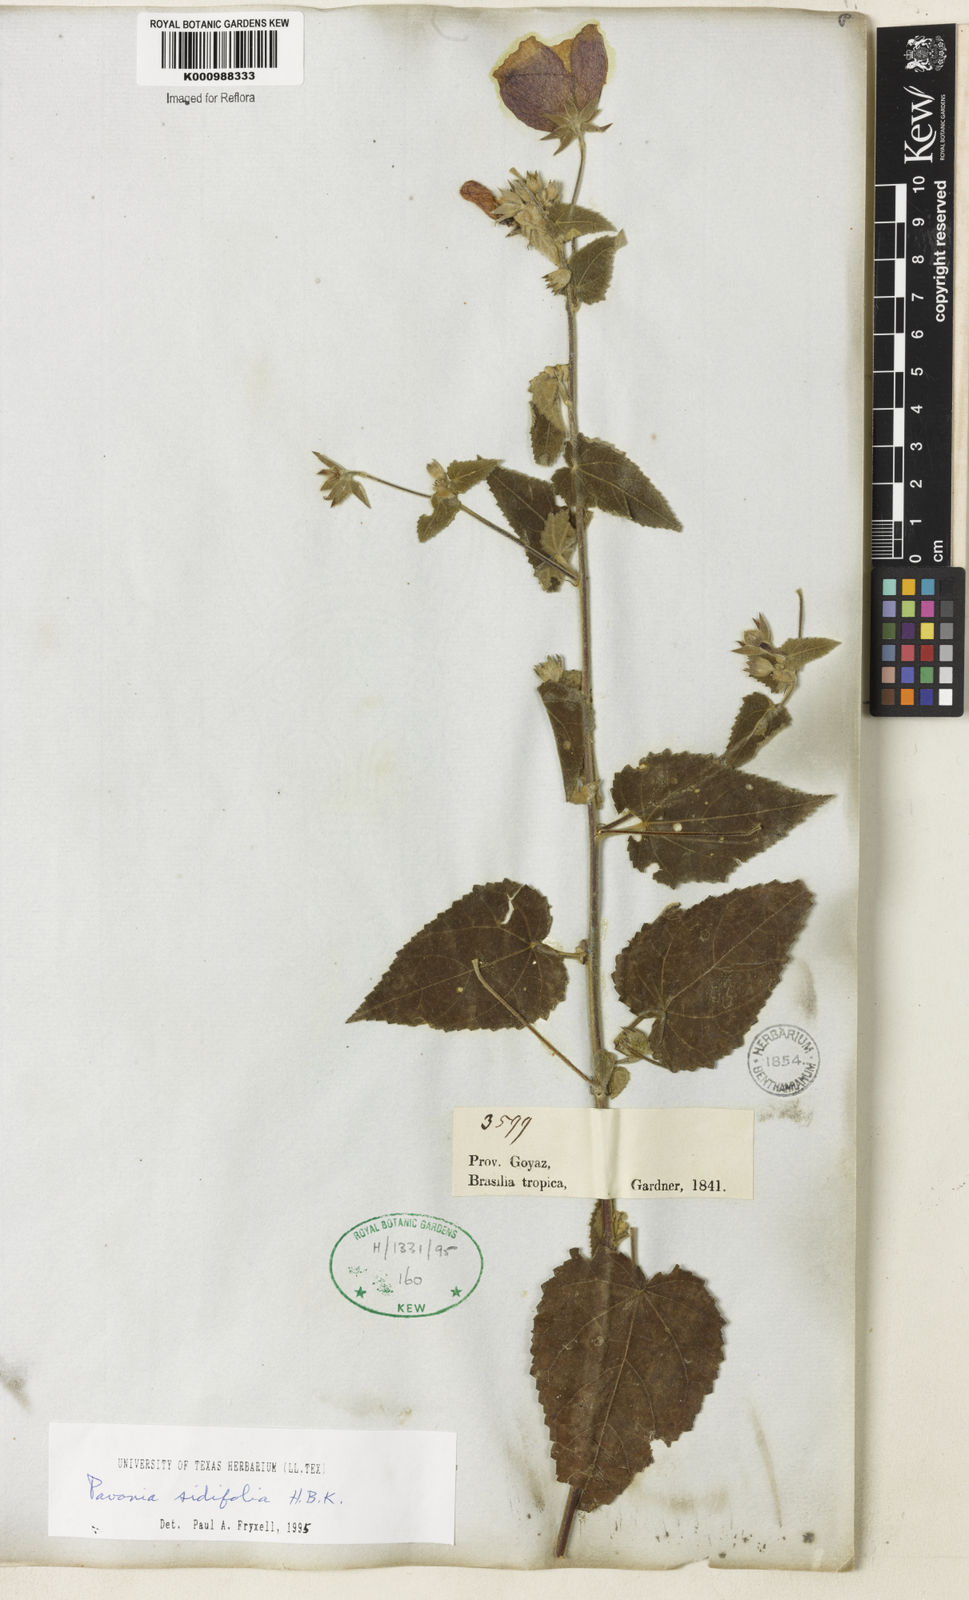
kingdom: Plantae
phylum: Tracheophyta
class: Magnoliopsida
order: Malvales
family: Malvaceae
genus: Pavonia
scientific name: Pavonia sidifolia
